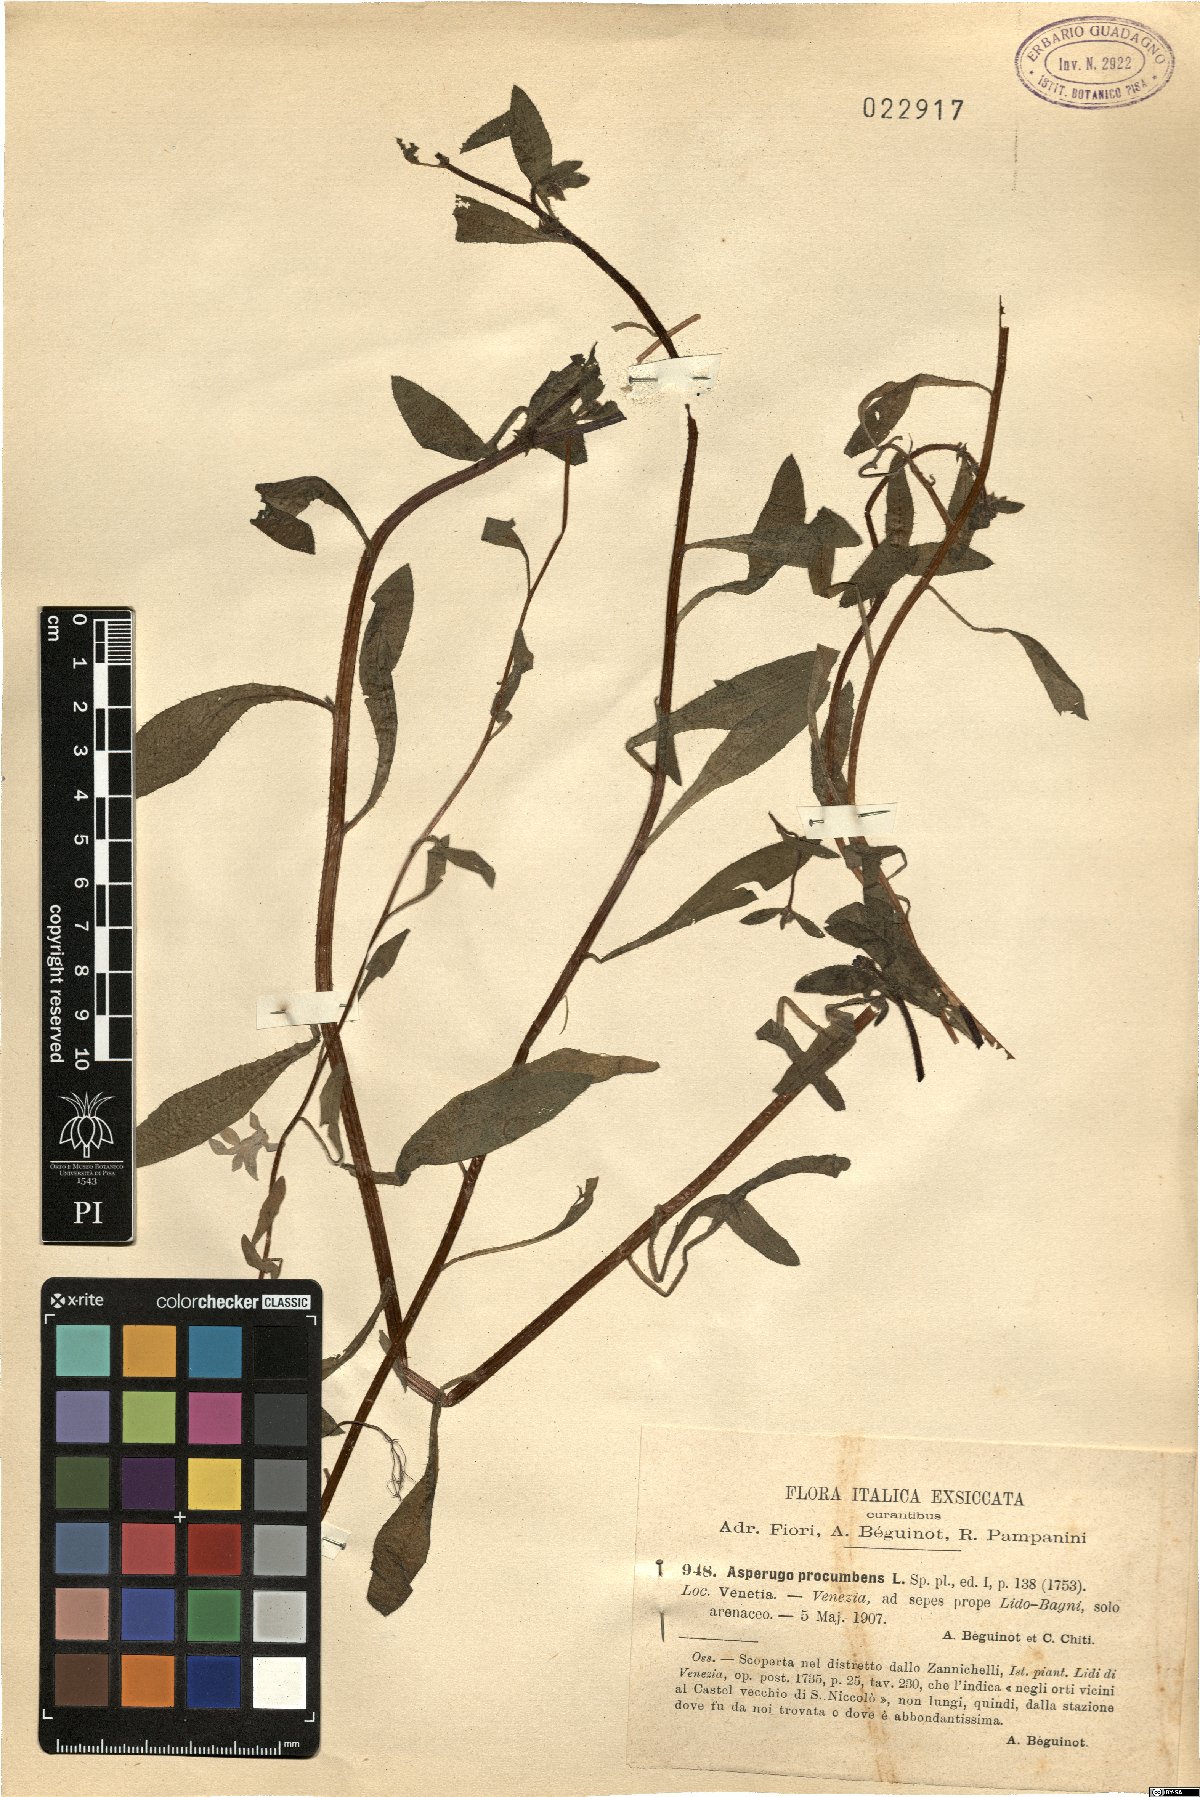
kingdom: Plantae
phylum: Tracheophyta
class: Magnoliopsida
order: Boraginales
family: Boraginaceae
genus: Asperugo
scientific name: Asperugo procumbens
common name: Madwort
